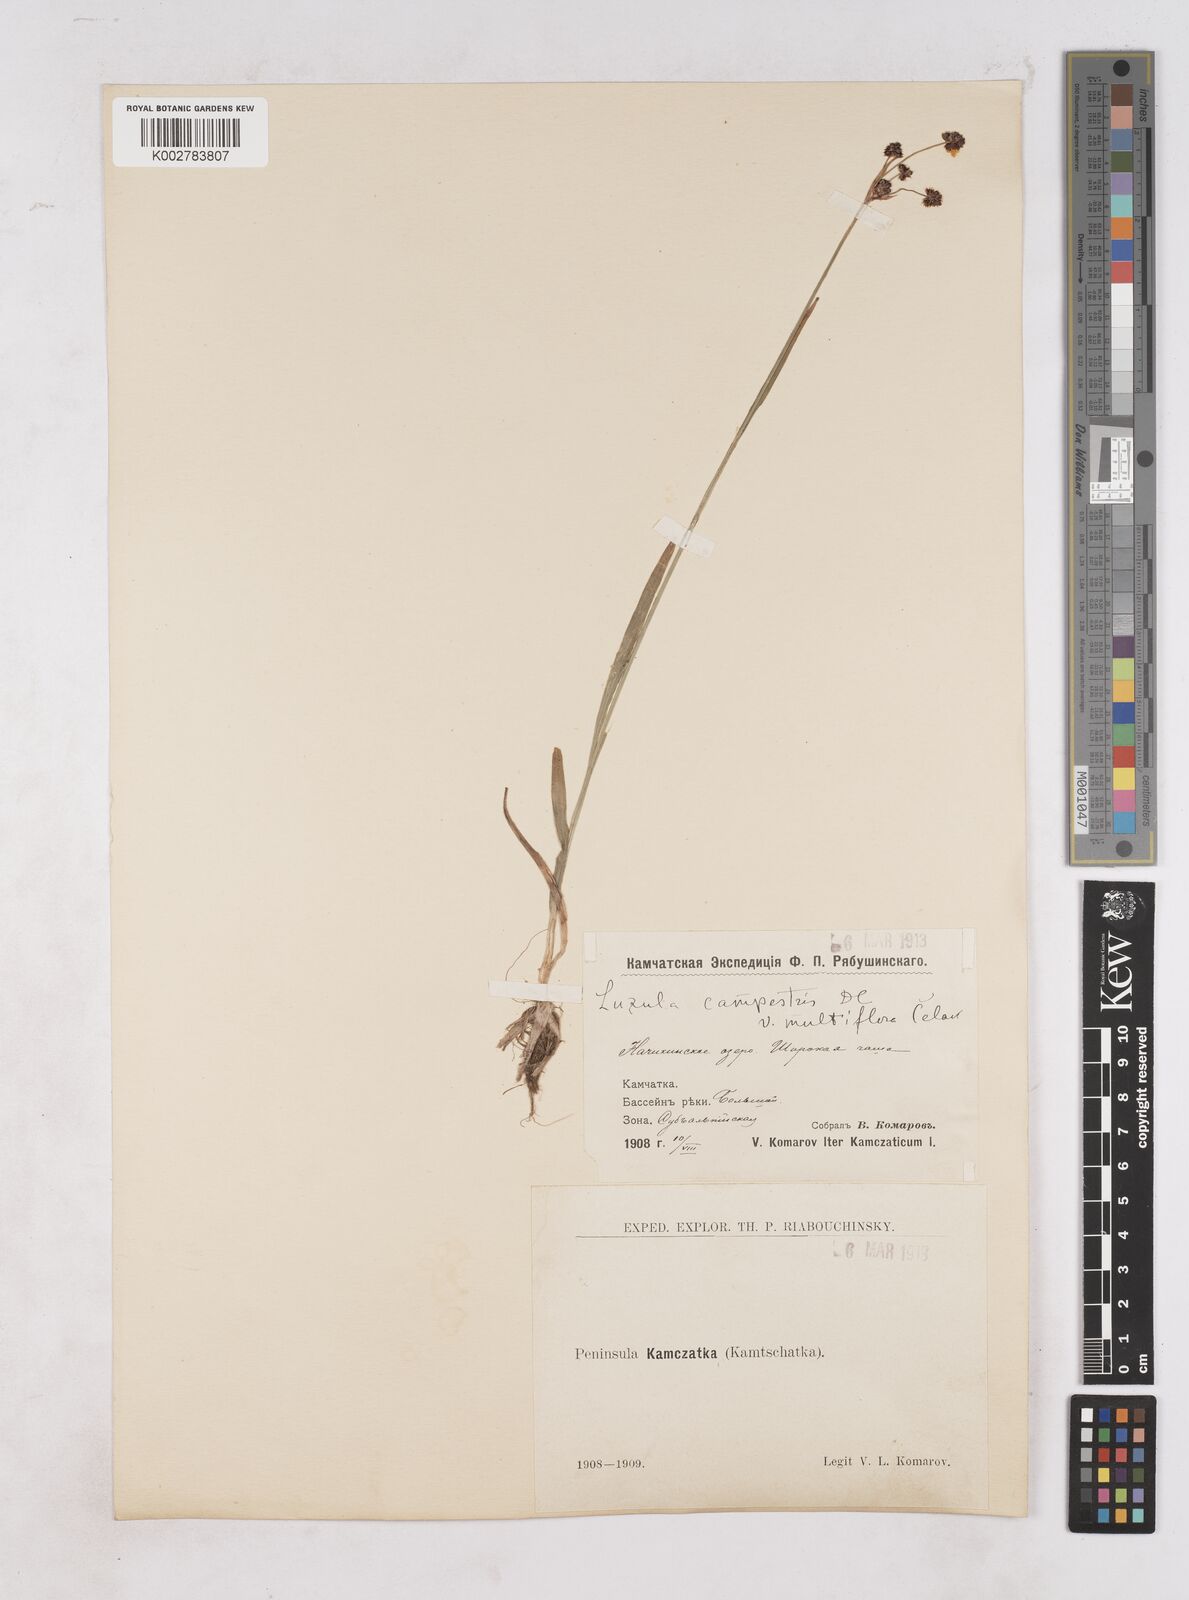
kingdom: Plantae
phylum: Tracheophyta
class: Liliopsida
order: Poales
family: Juncaceae
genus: Luzula
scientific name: Luzula campestris
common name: Field wood-rush
